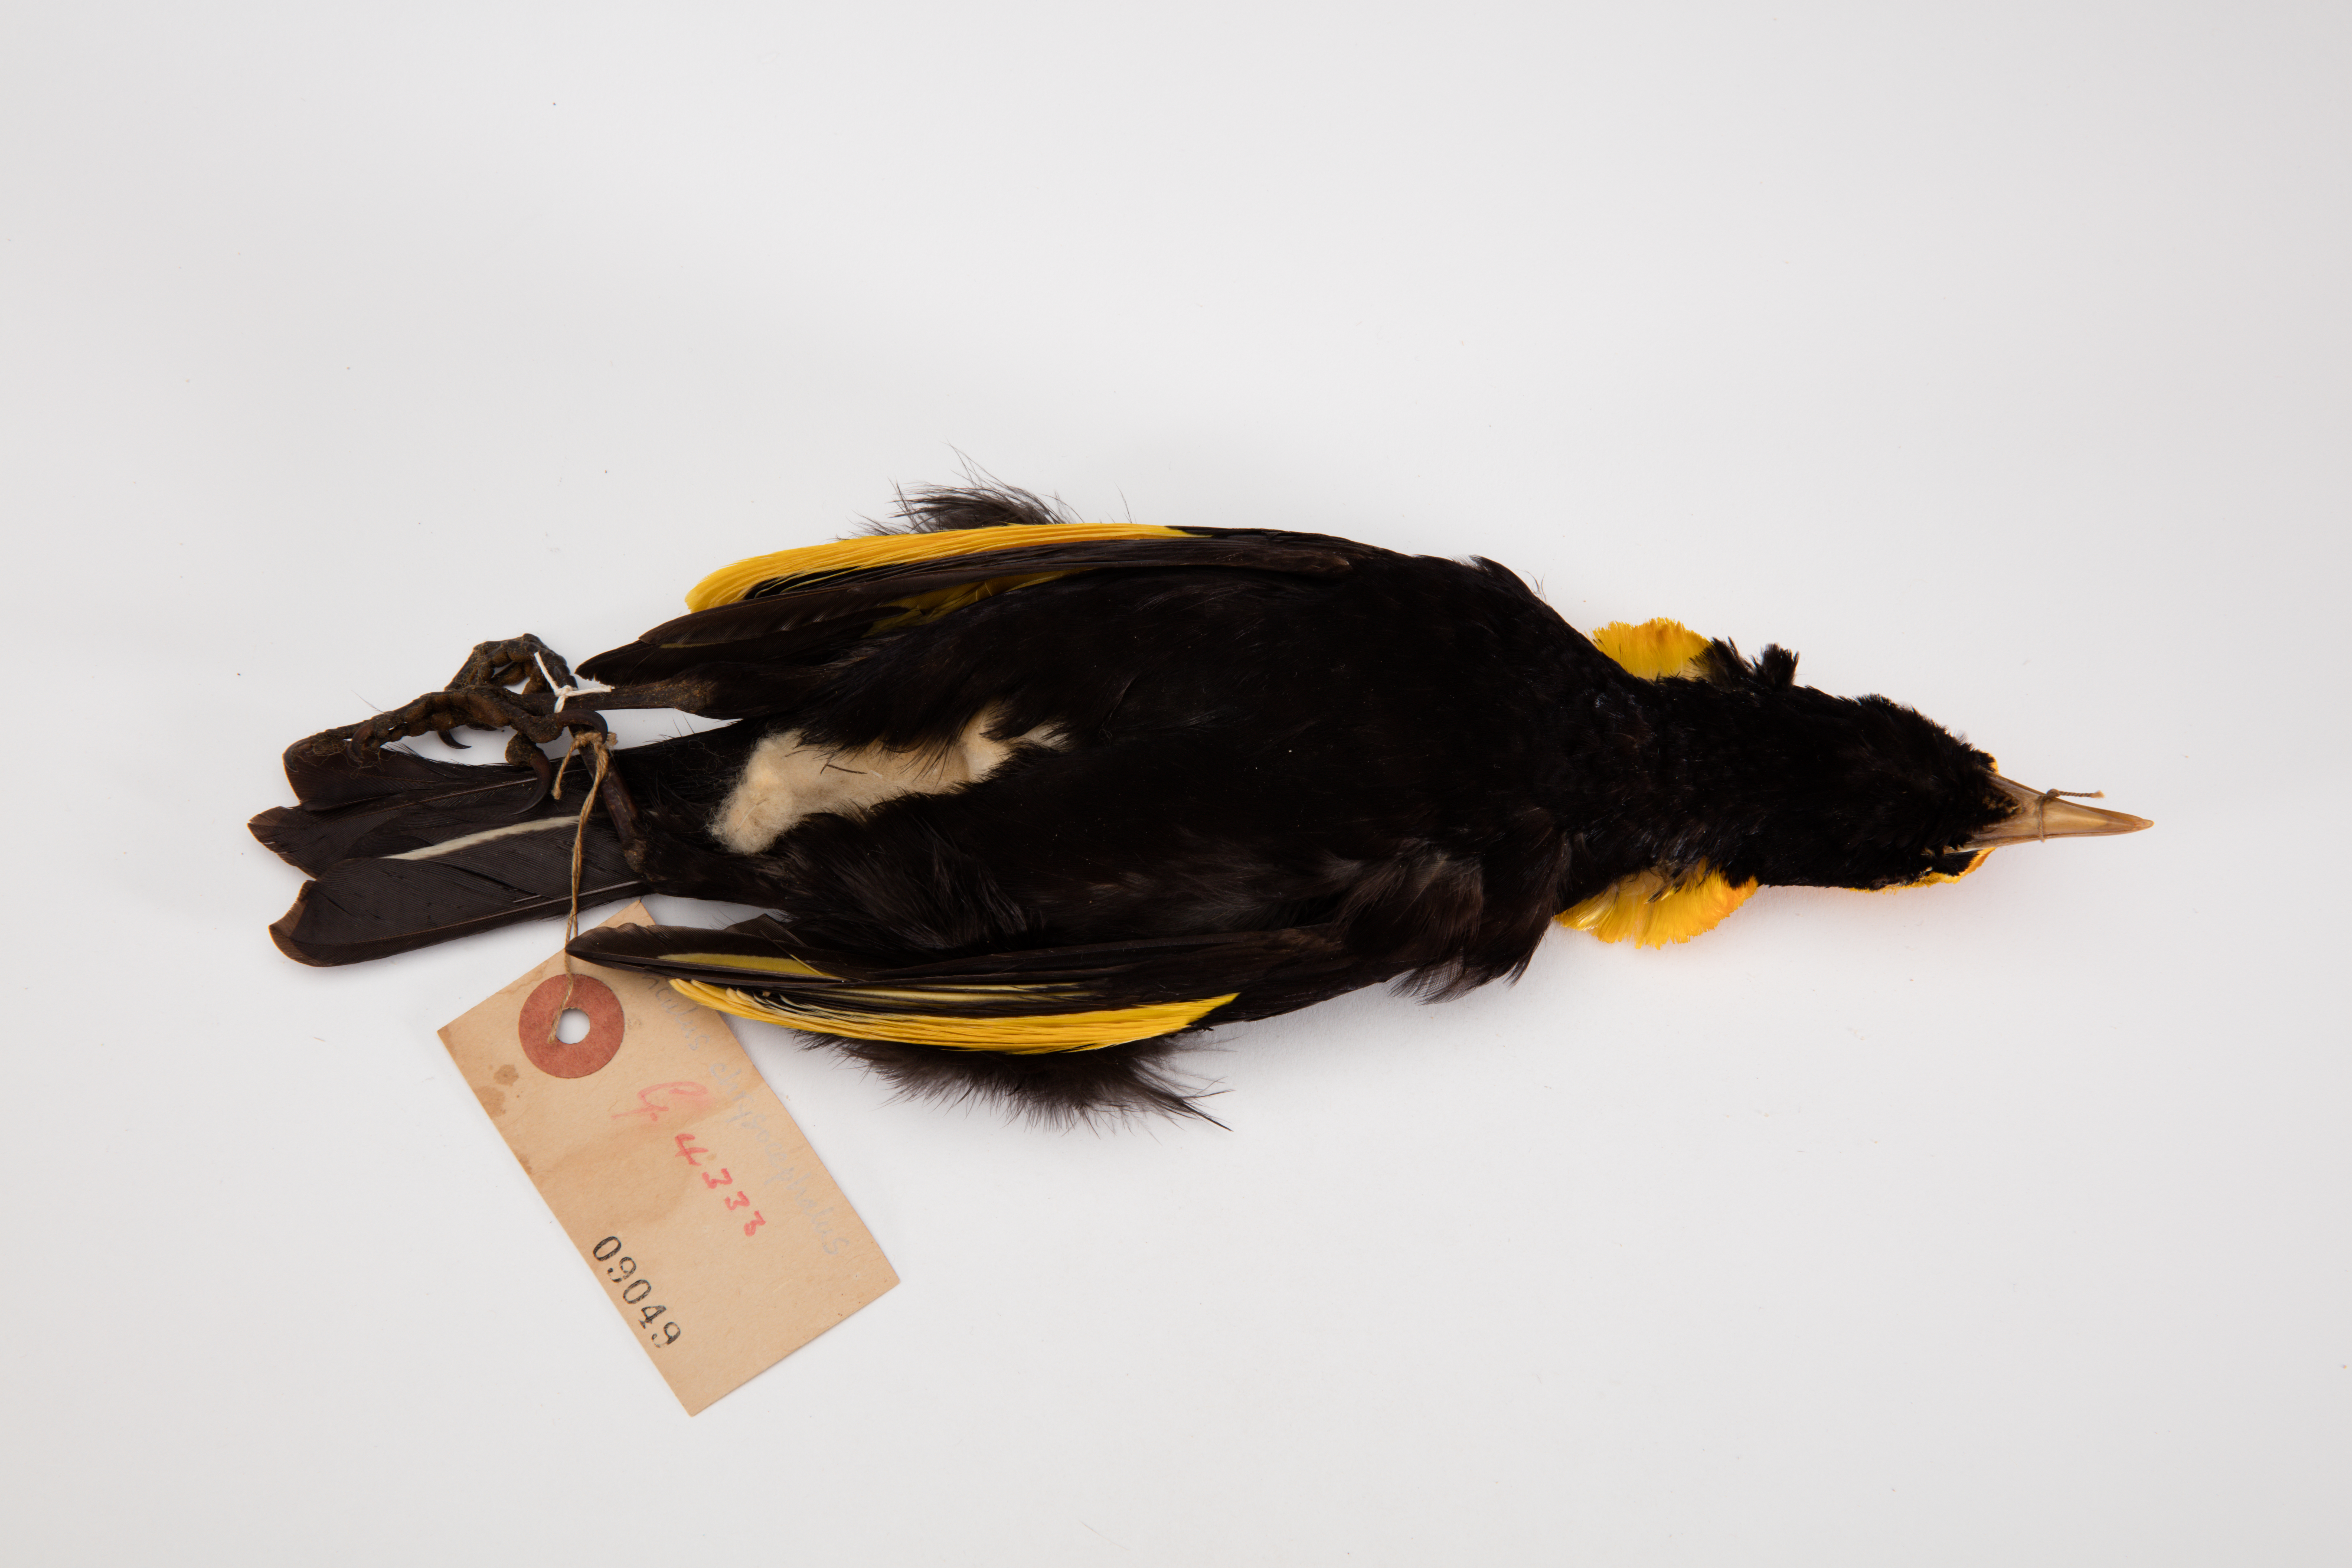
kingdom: Animalia
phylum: Chordata
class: Aves
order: Passeriformes
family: Ptilonorhynchidae
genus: Sericulus
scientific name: Sericulus chrysocephalus
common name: Regent bowerbird
